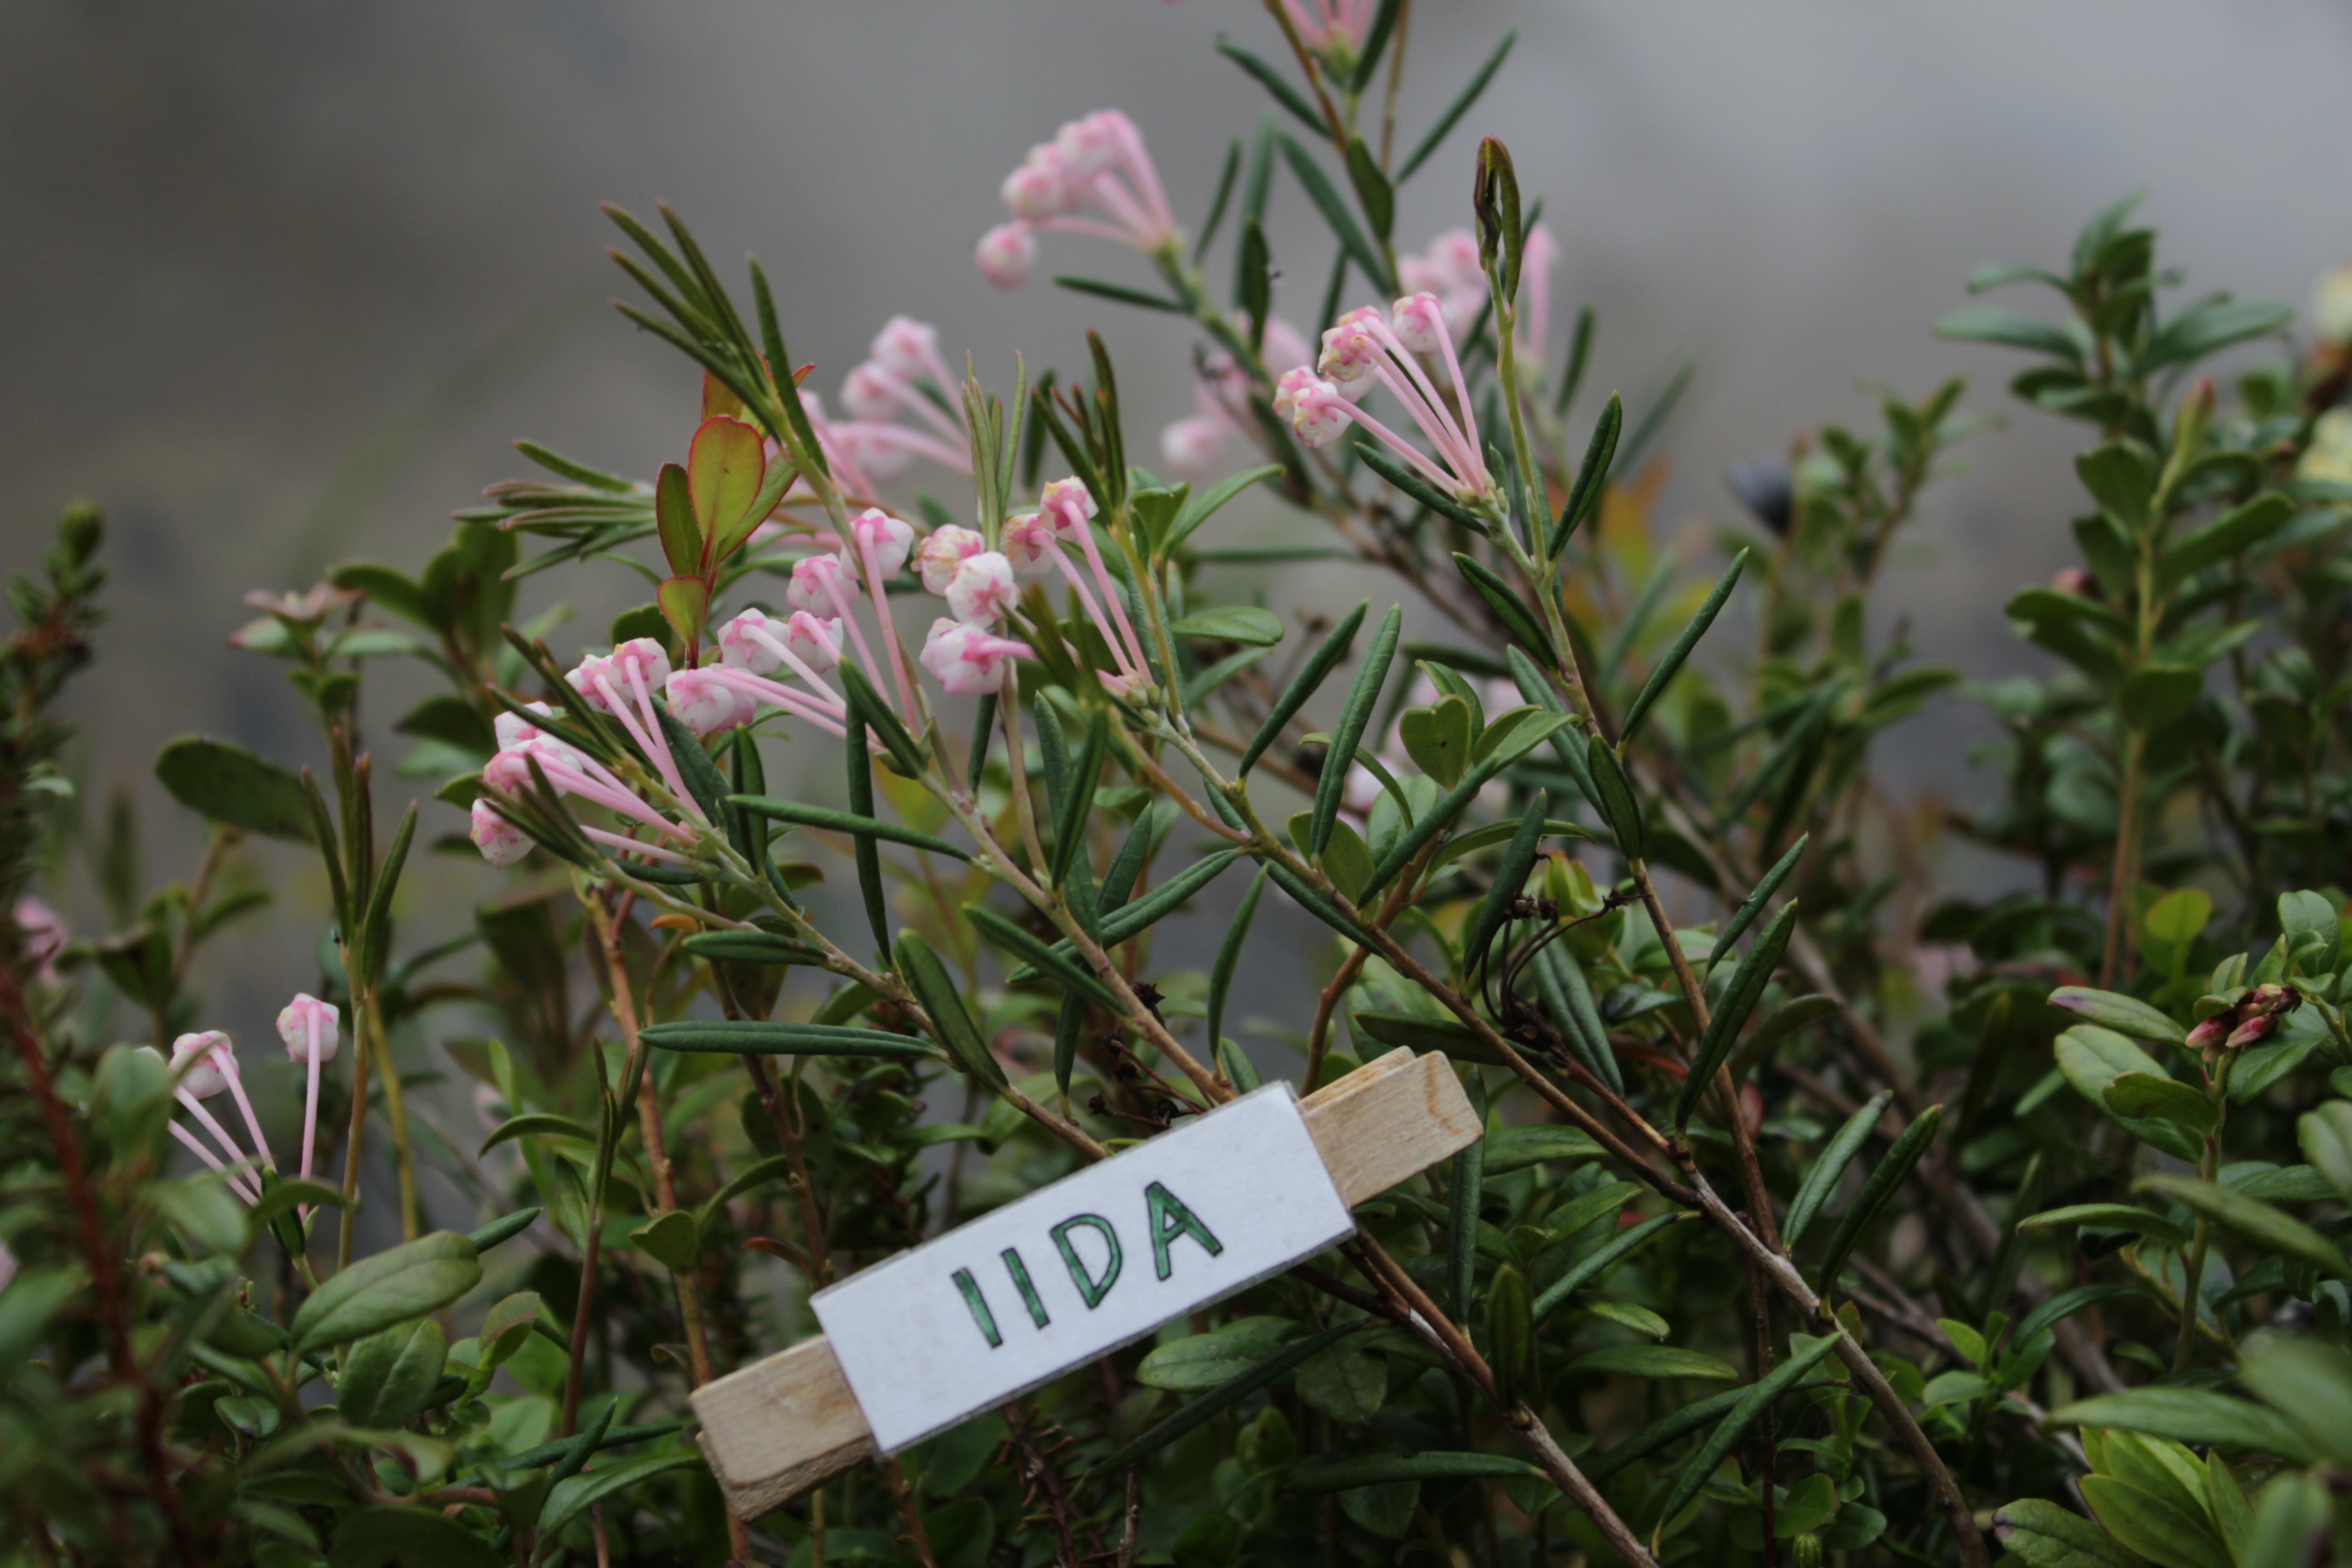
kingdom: Plantae
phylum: Tracheophyta
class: Magnoliopsida
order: Ericales
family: Ericaceae
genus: Andromeda
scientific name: Andromeda polifolia
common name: Bog-rosemary
